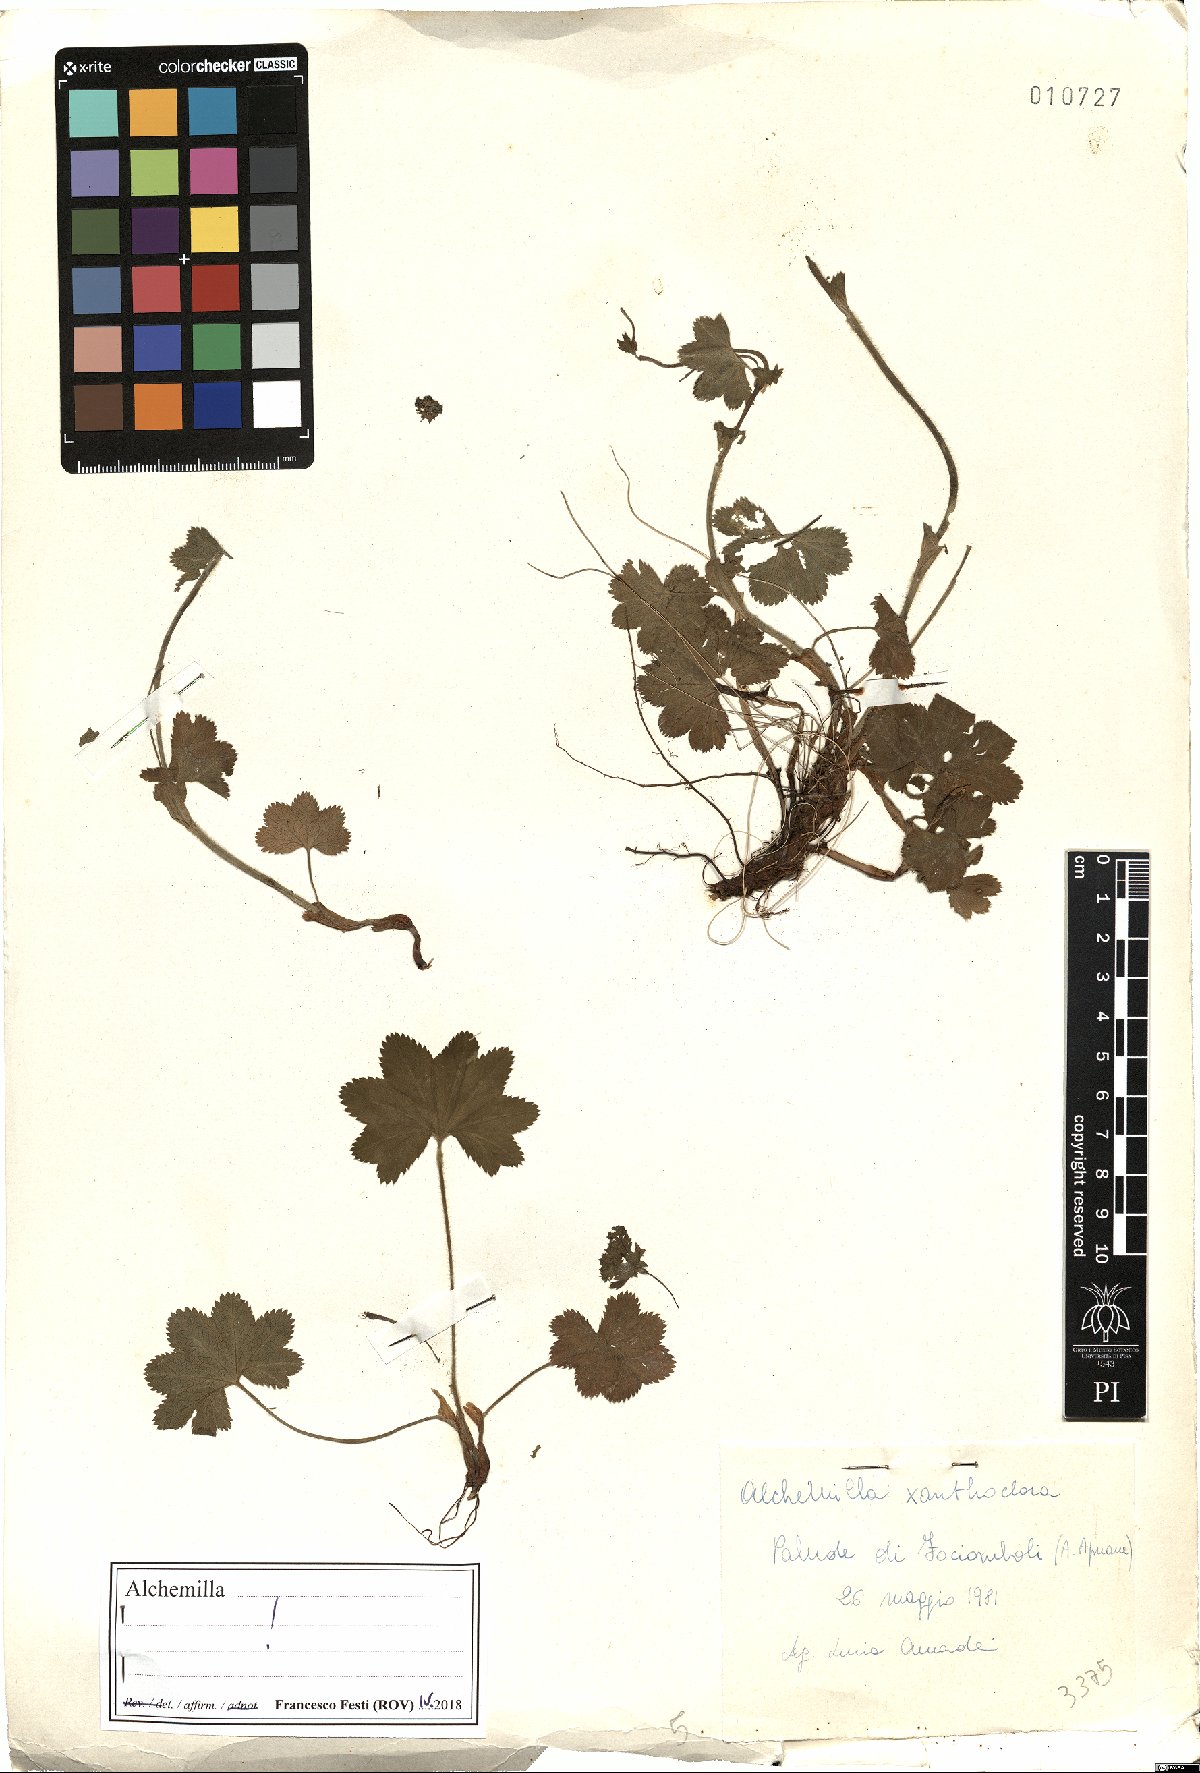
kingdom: Plantae
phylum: Tracheophyta
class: Magnoliopsida
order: Rosales
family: Rosaceae
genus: Alchemilla
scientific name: Alchemilla xanthochlora
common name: Intermediate lady's-mantle
